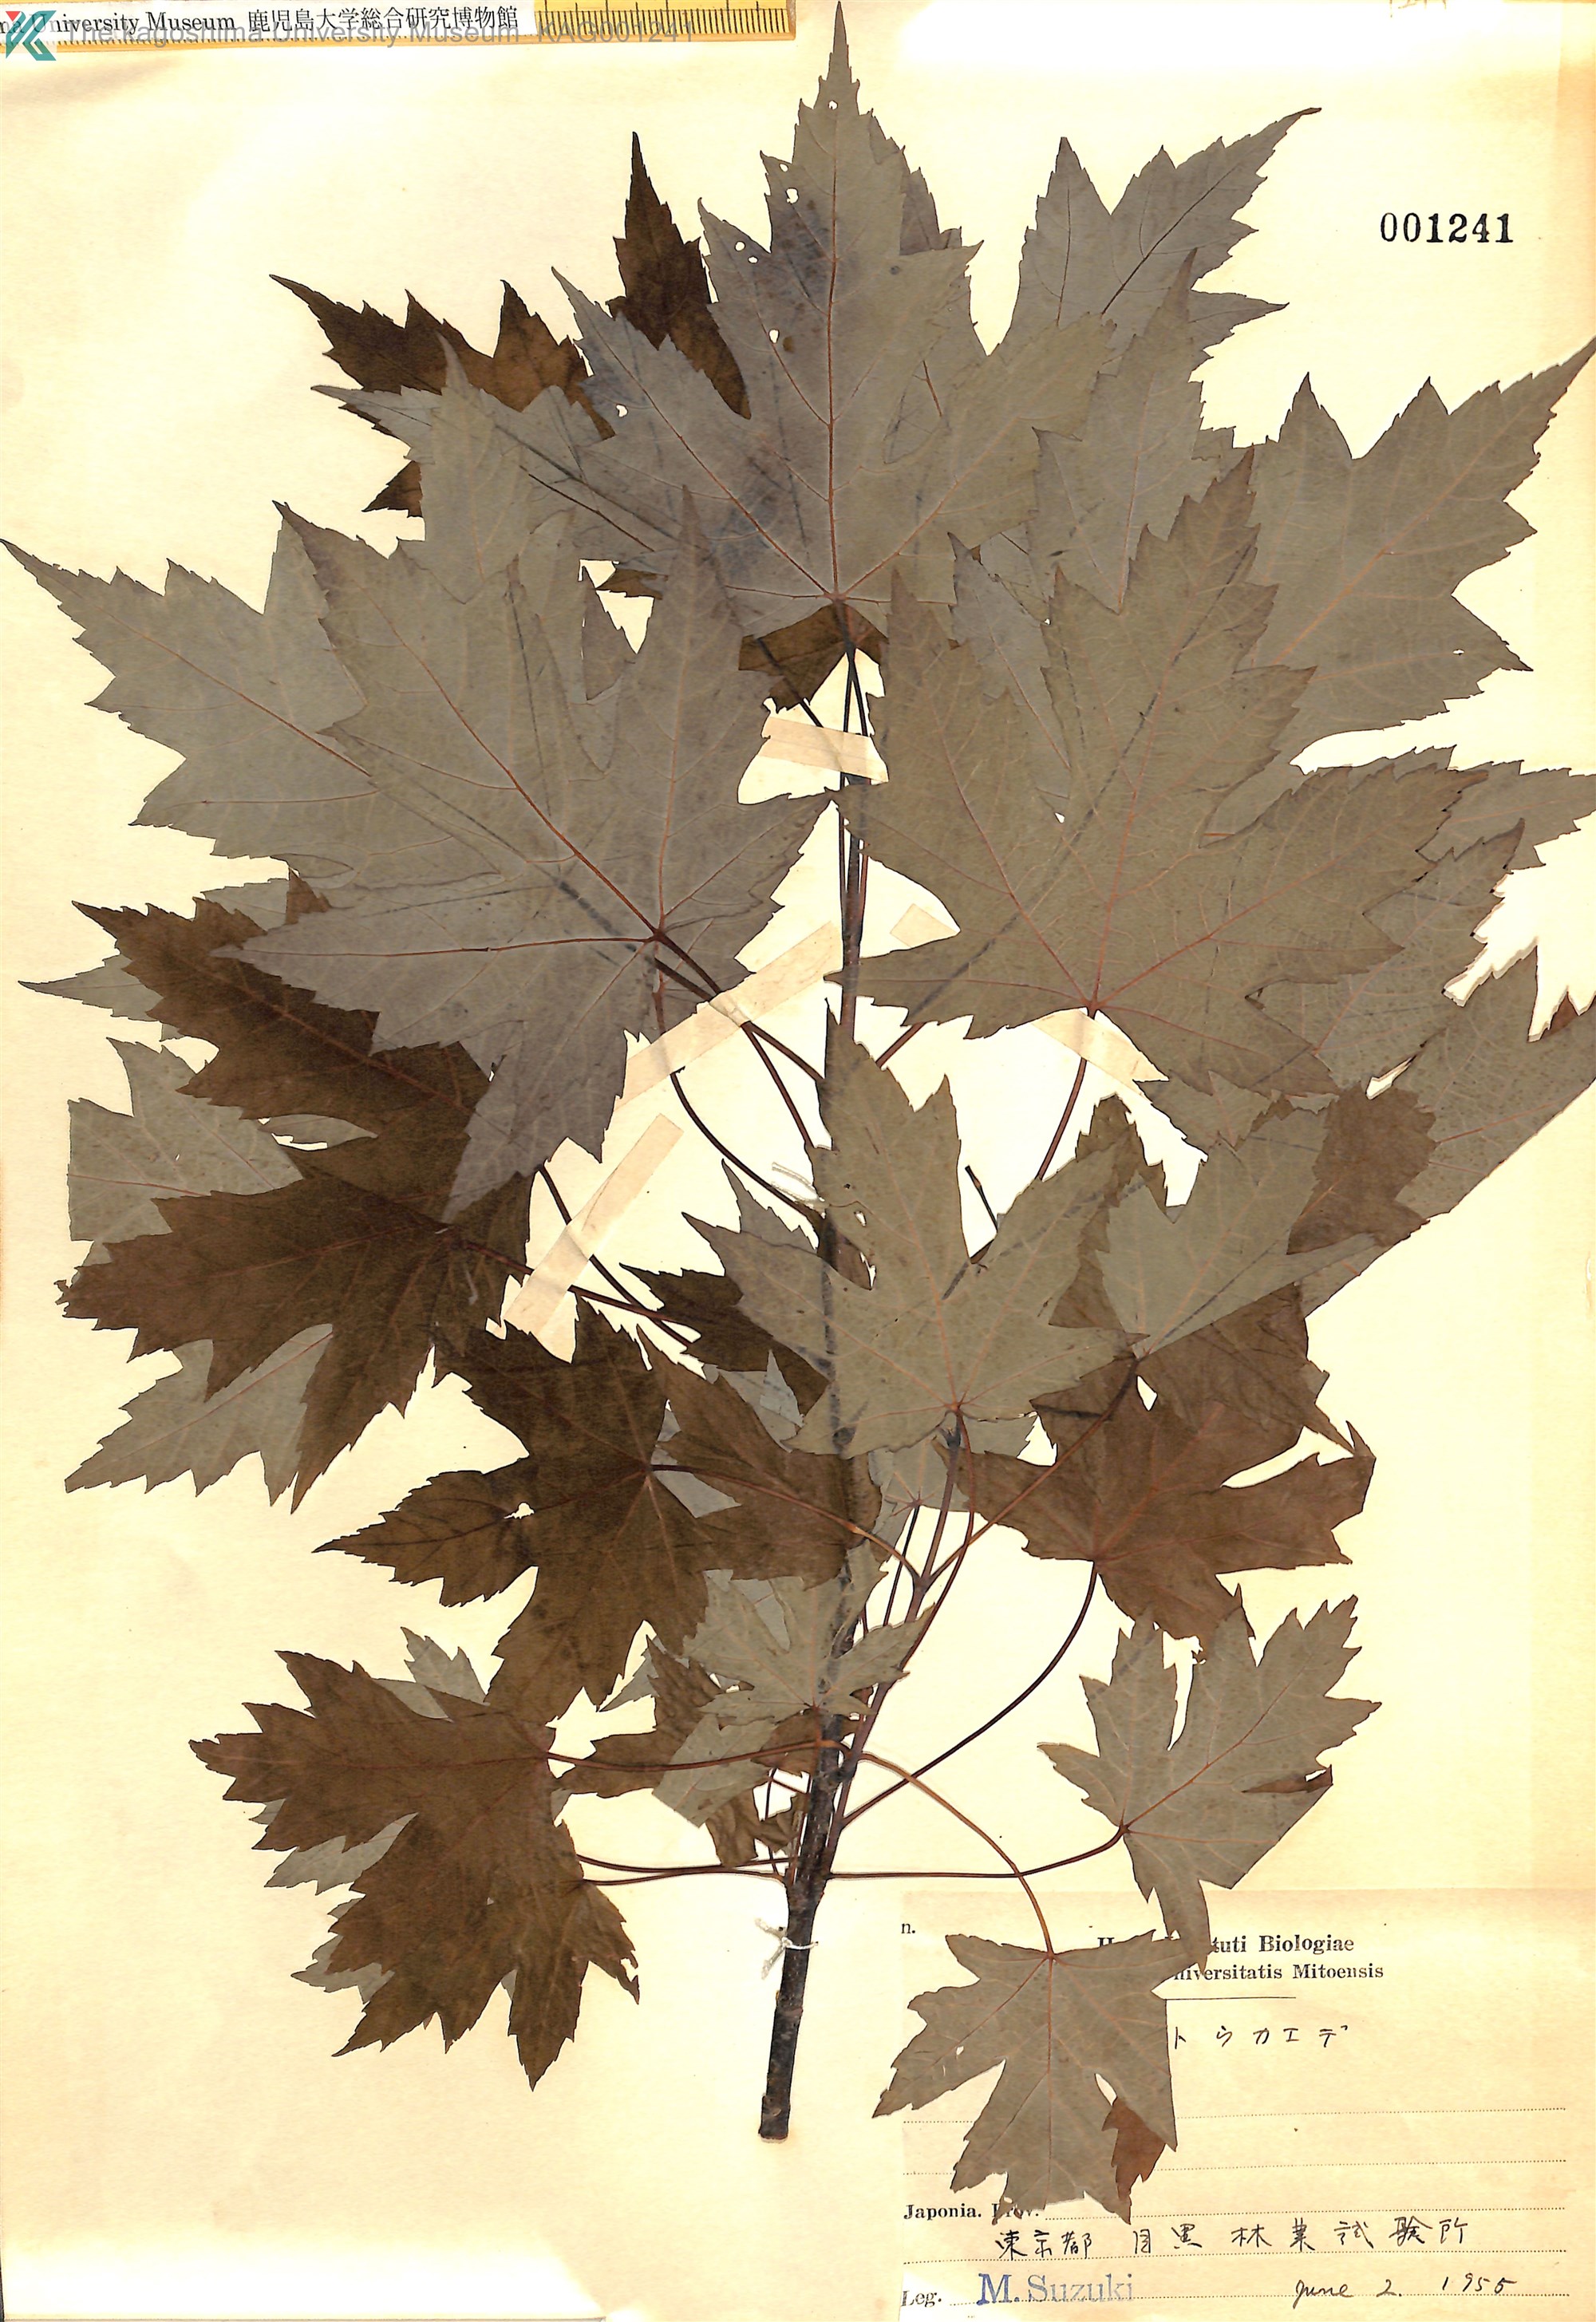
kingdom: Plantae
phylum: Tracheophyta
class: Magnoliopsida
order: Sapindales
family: Sapindaceae
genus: Acer
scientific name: Acer saccharinum
